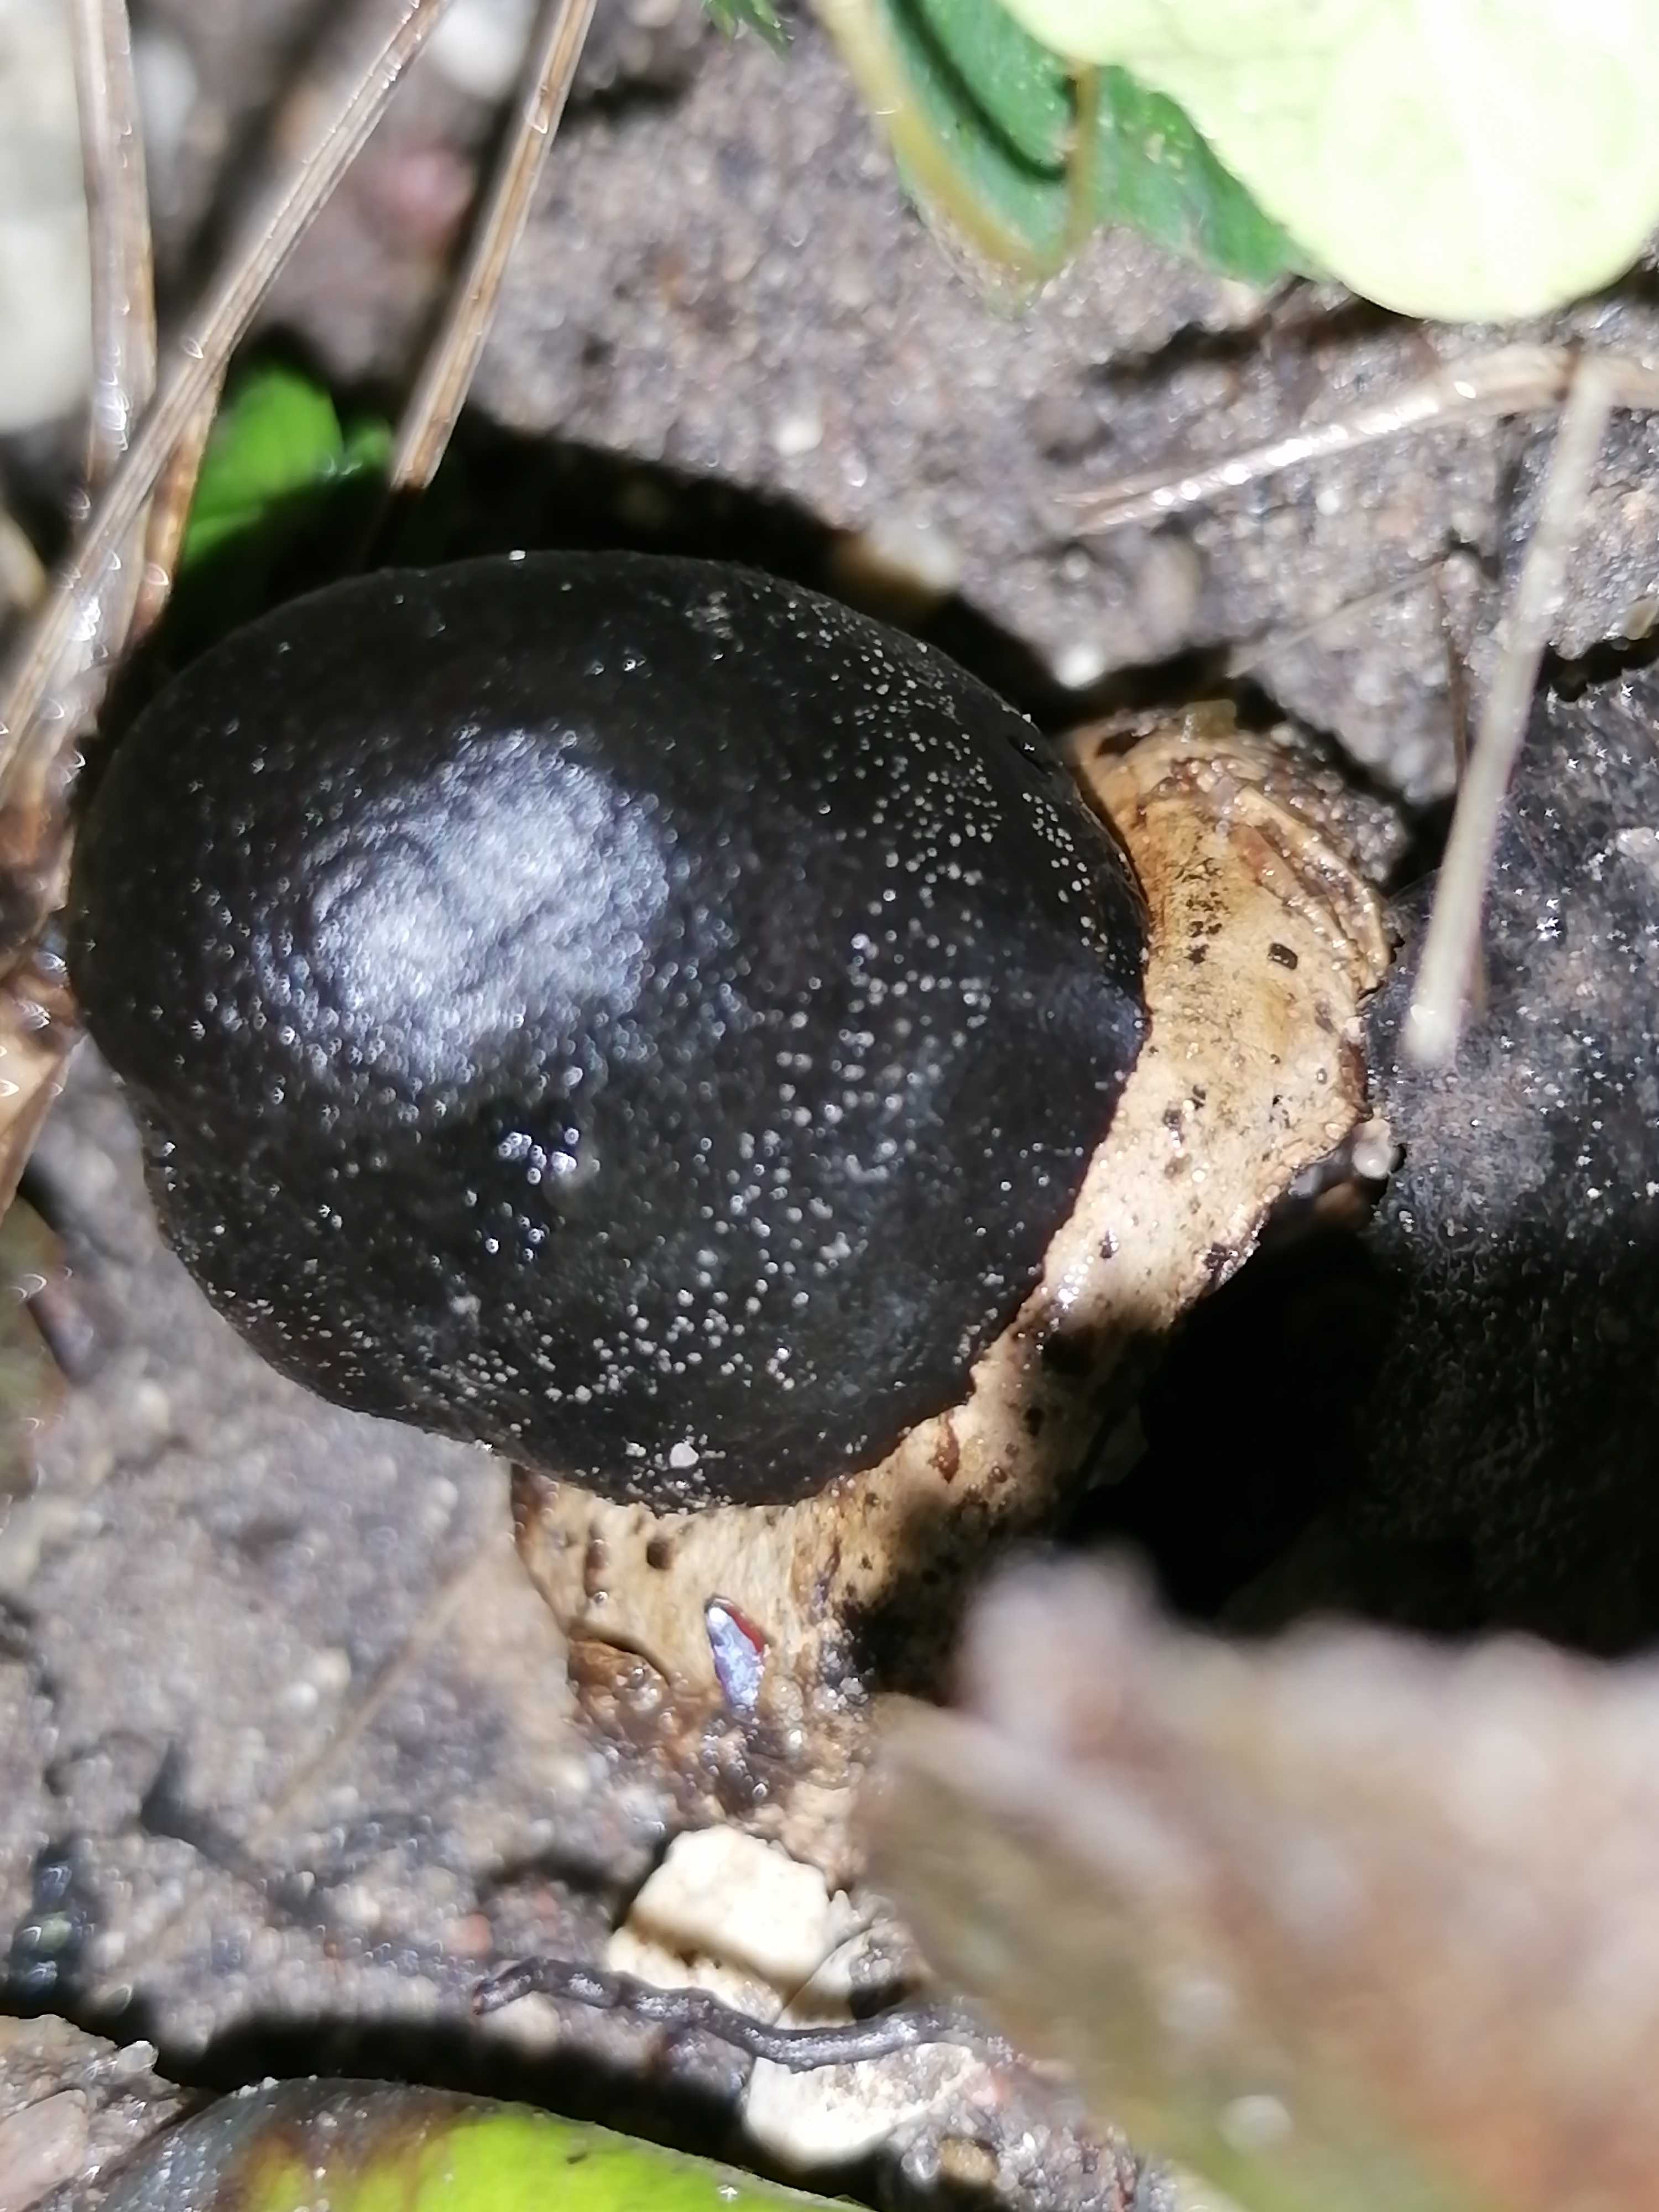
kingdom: Fungi
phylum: Basidiomycota
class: Agaricomycetes
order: Agaricales
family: Agaricaceae
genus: Chlorophyllum
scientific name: Chlorophyllum
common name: rabarberhat
